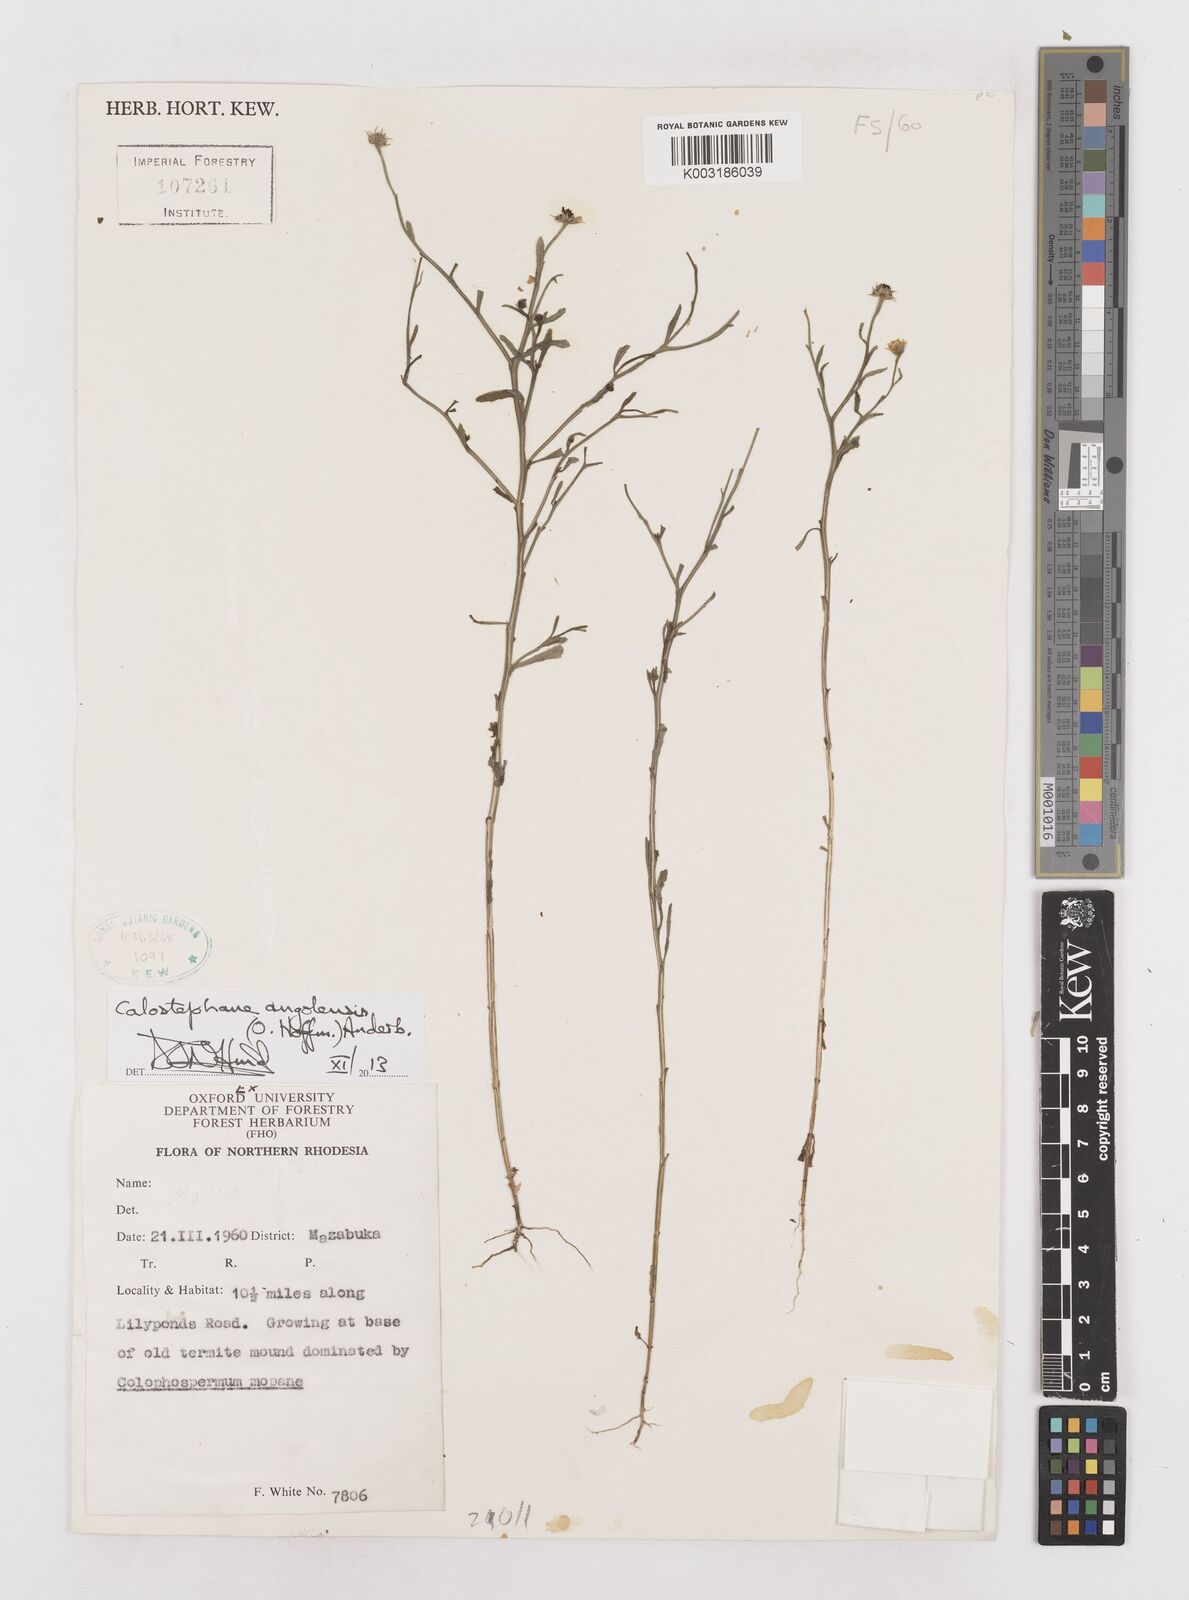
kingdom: Plantae
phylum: Tracheophyta
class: Magnoliopsida
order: Asterales
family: Asteraceae
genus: Calostephane
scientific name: Calostephane angolensis
